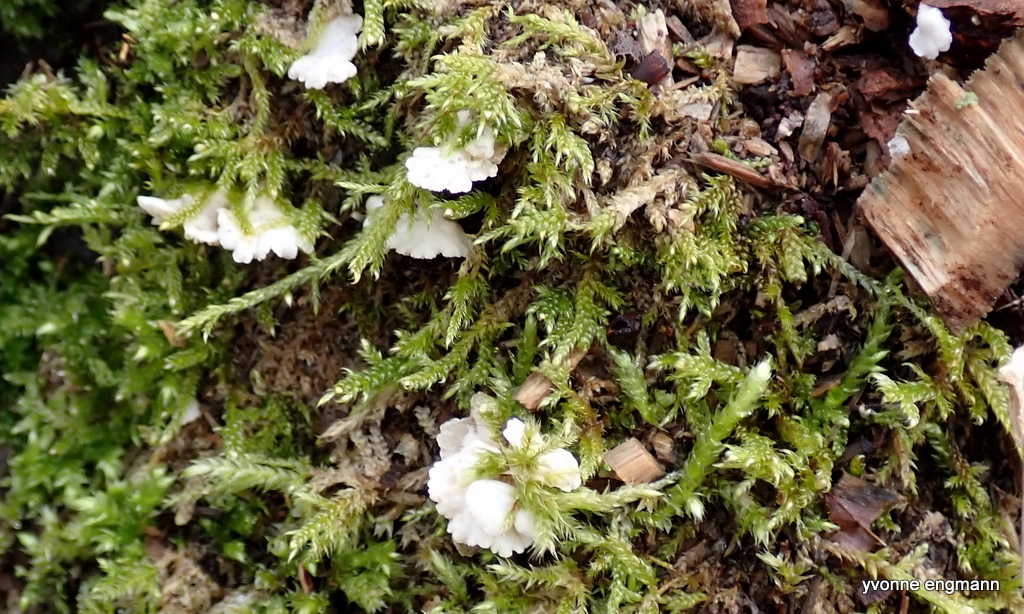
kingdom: Fungi
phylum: Basidiomycota
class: Agaricomycetes
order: Agaricales
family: Crepidotaceae
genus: Crepidotus
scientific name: Crepidotus
